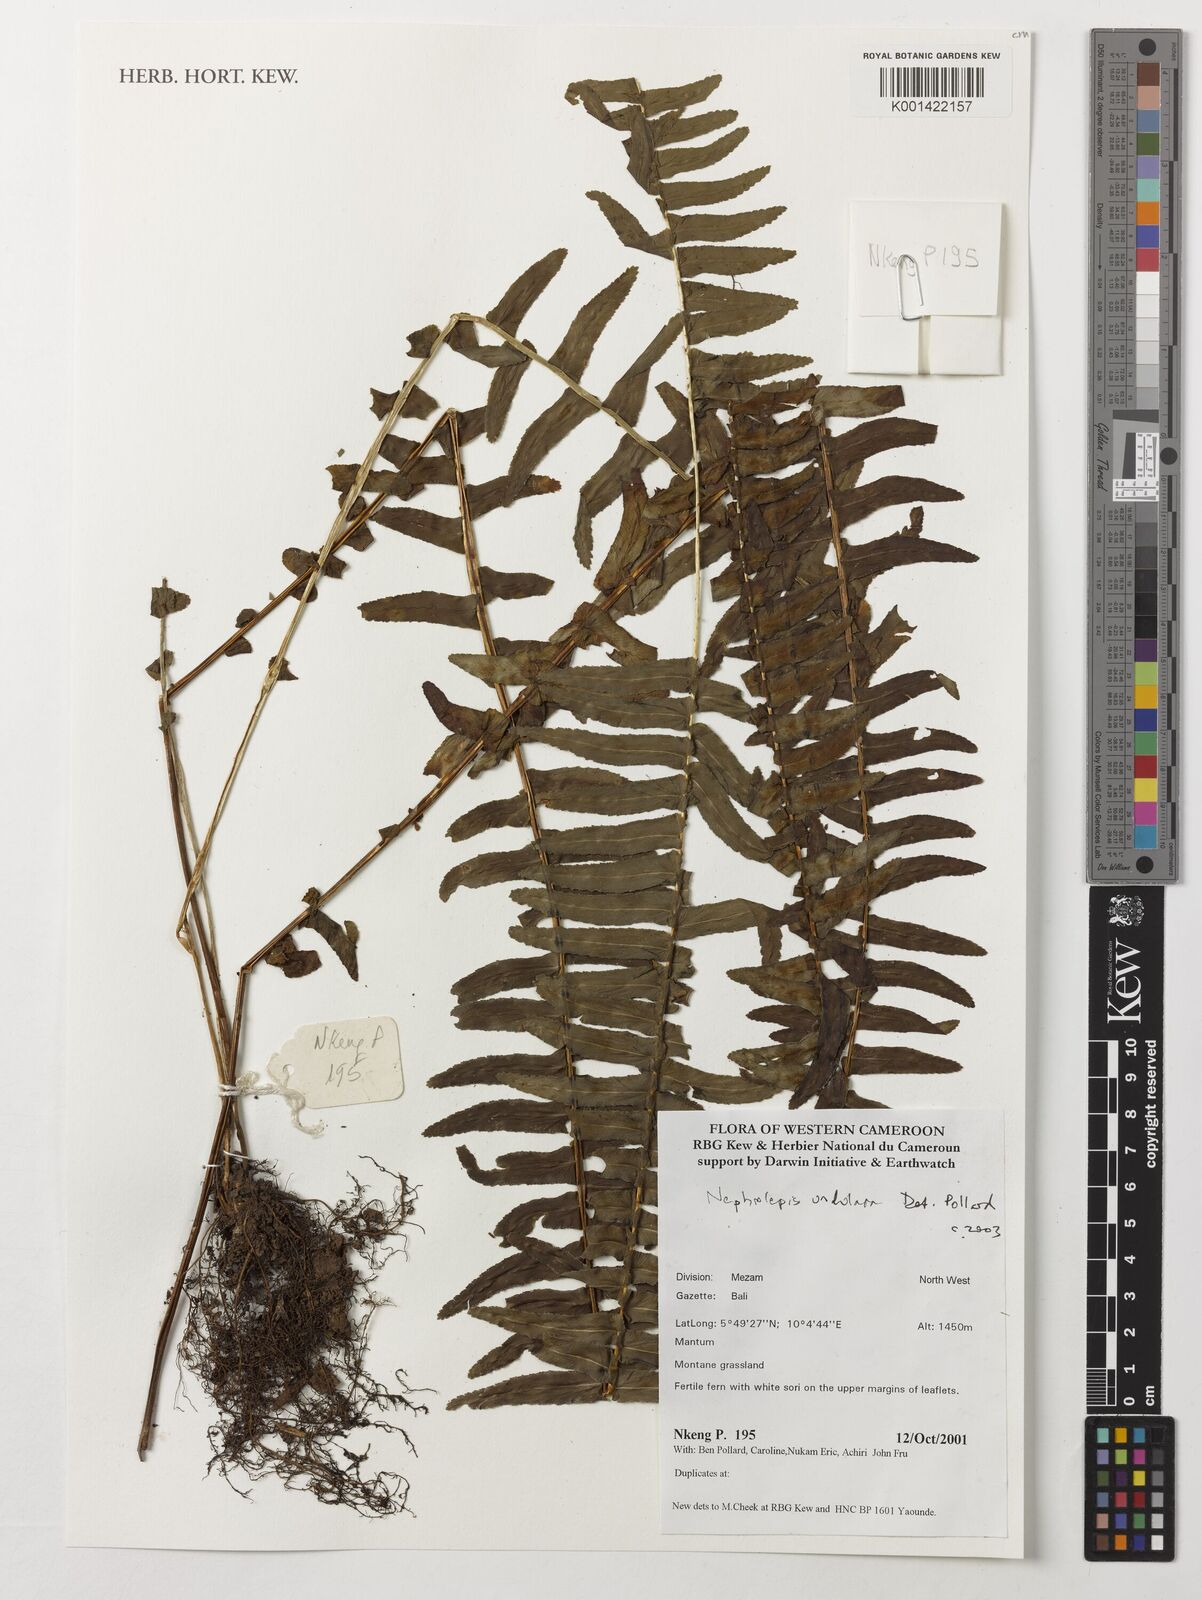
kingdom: Plantae
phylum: Tracheophyta
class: Polypodiopsida
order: Polypodiales
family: Nephrolepidaceae
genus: Nephrolepis
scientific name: Nephrolepis undulata
